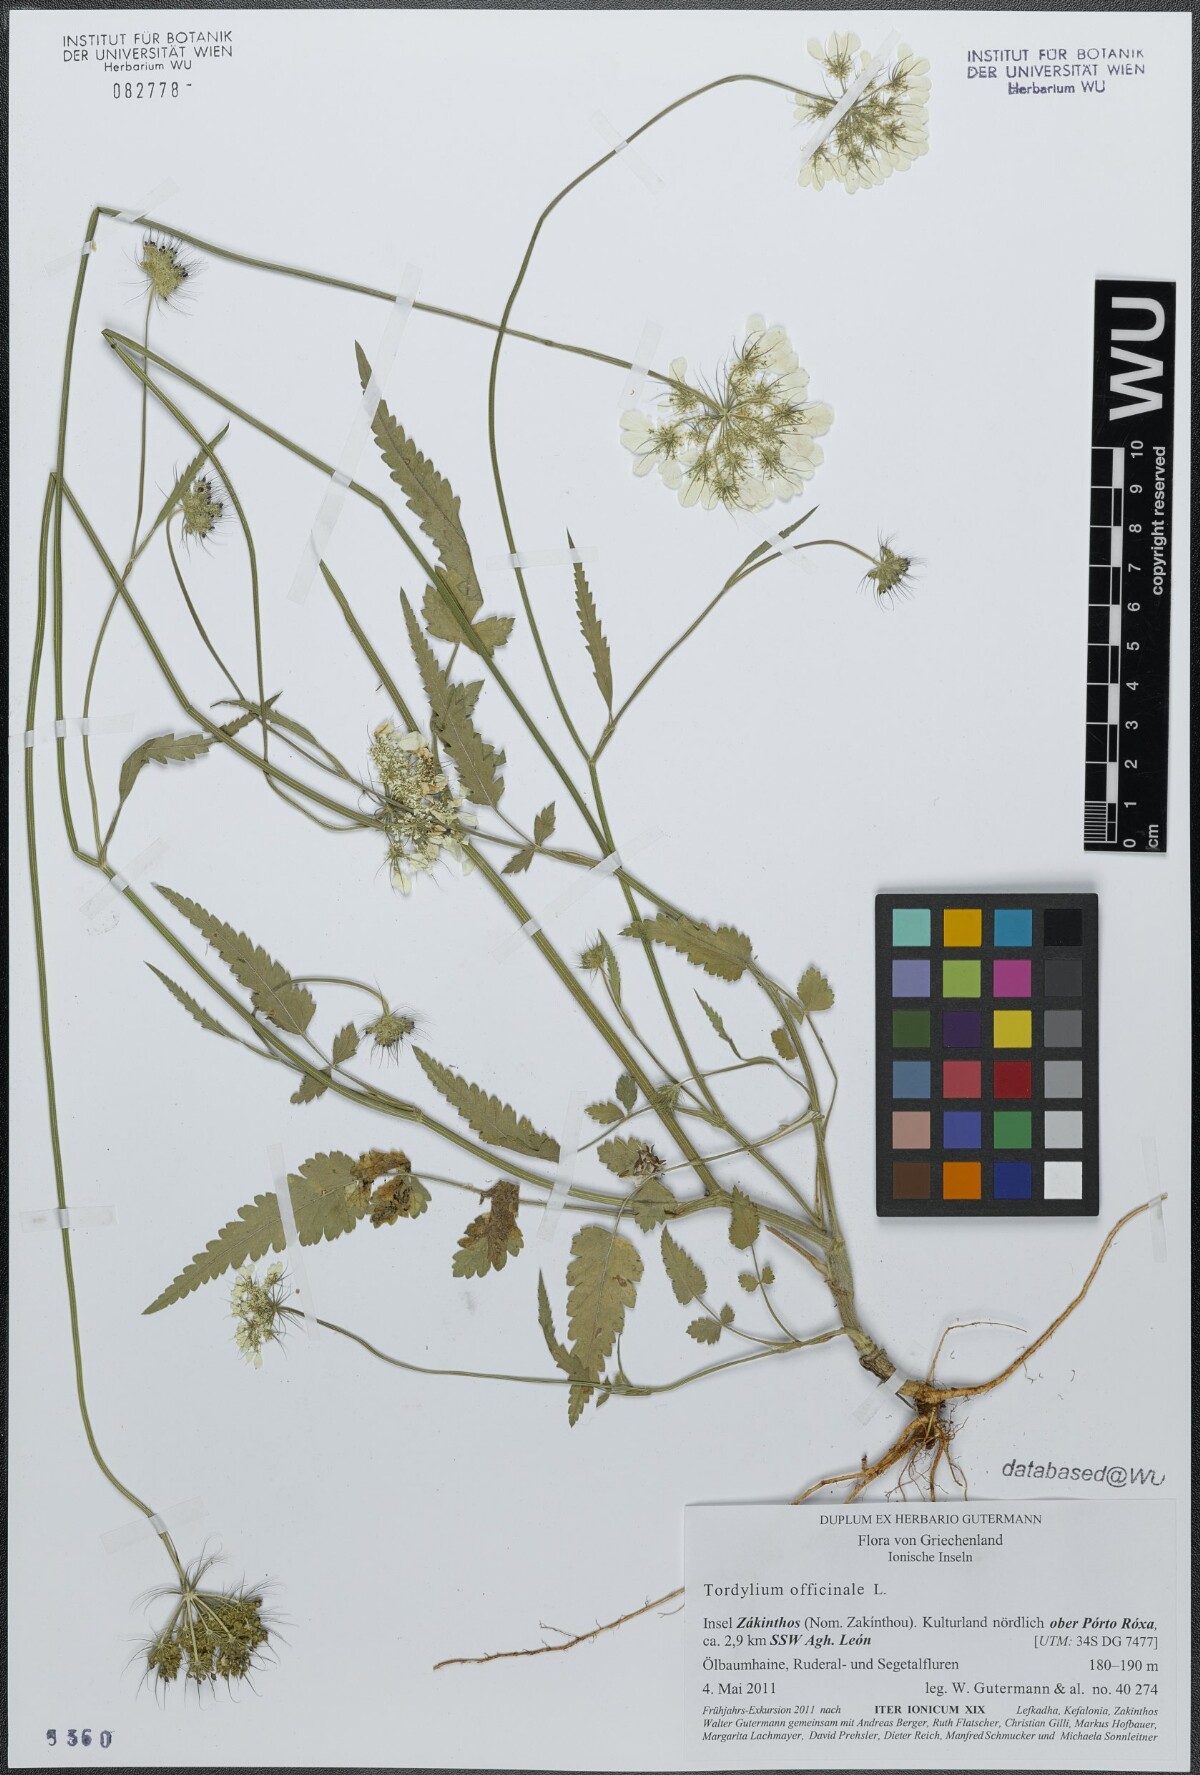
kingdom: Plantae
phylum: Tracheophyta
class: Magnoliopsida
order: Apiales
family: Apiaceae
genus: Tordylium
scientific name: Tordylium officinale
